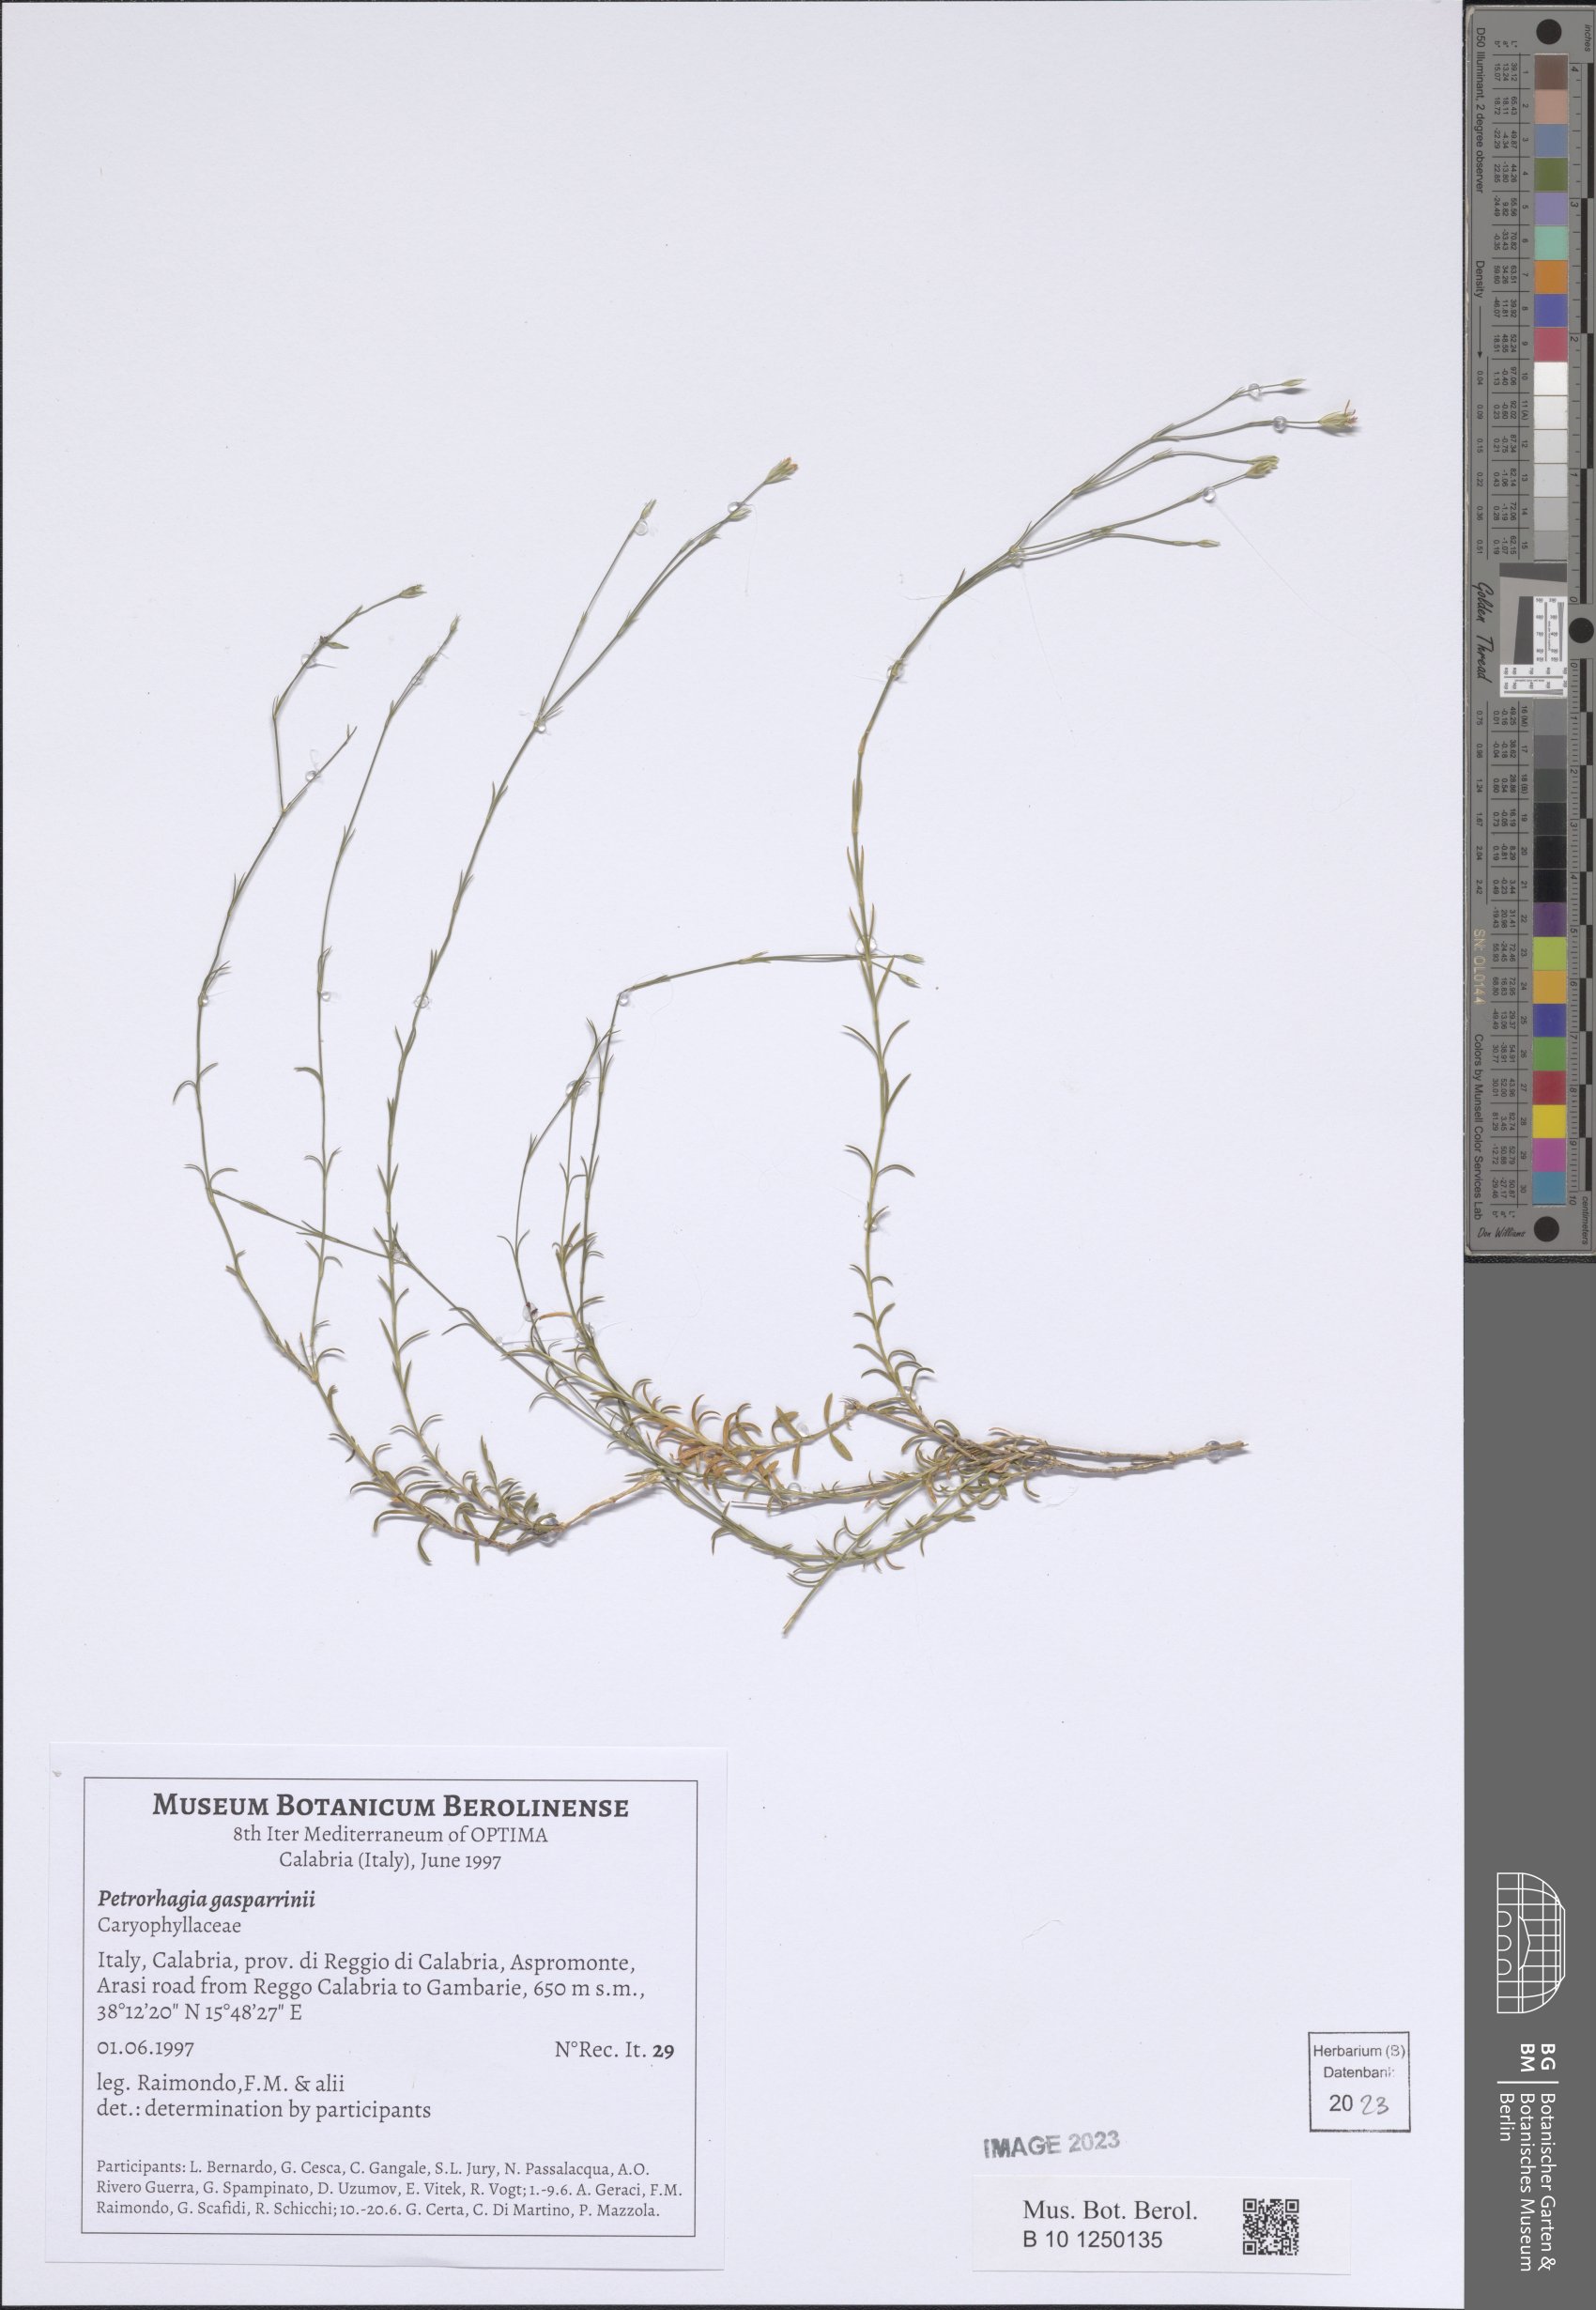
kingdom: Plantae
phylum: Tracheophyta
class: Magnoliopsida
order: Caryophyllales
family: Caryophyllaceae
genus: Petrorhagia
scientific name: Petrorhagia saxifraga
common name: Tunicflower
